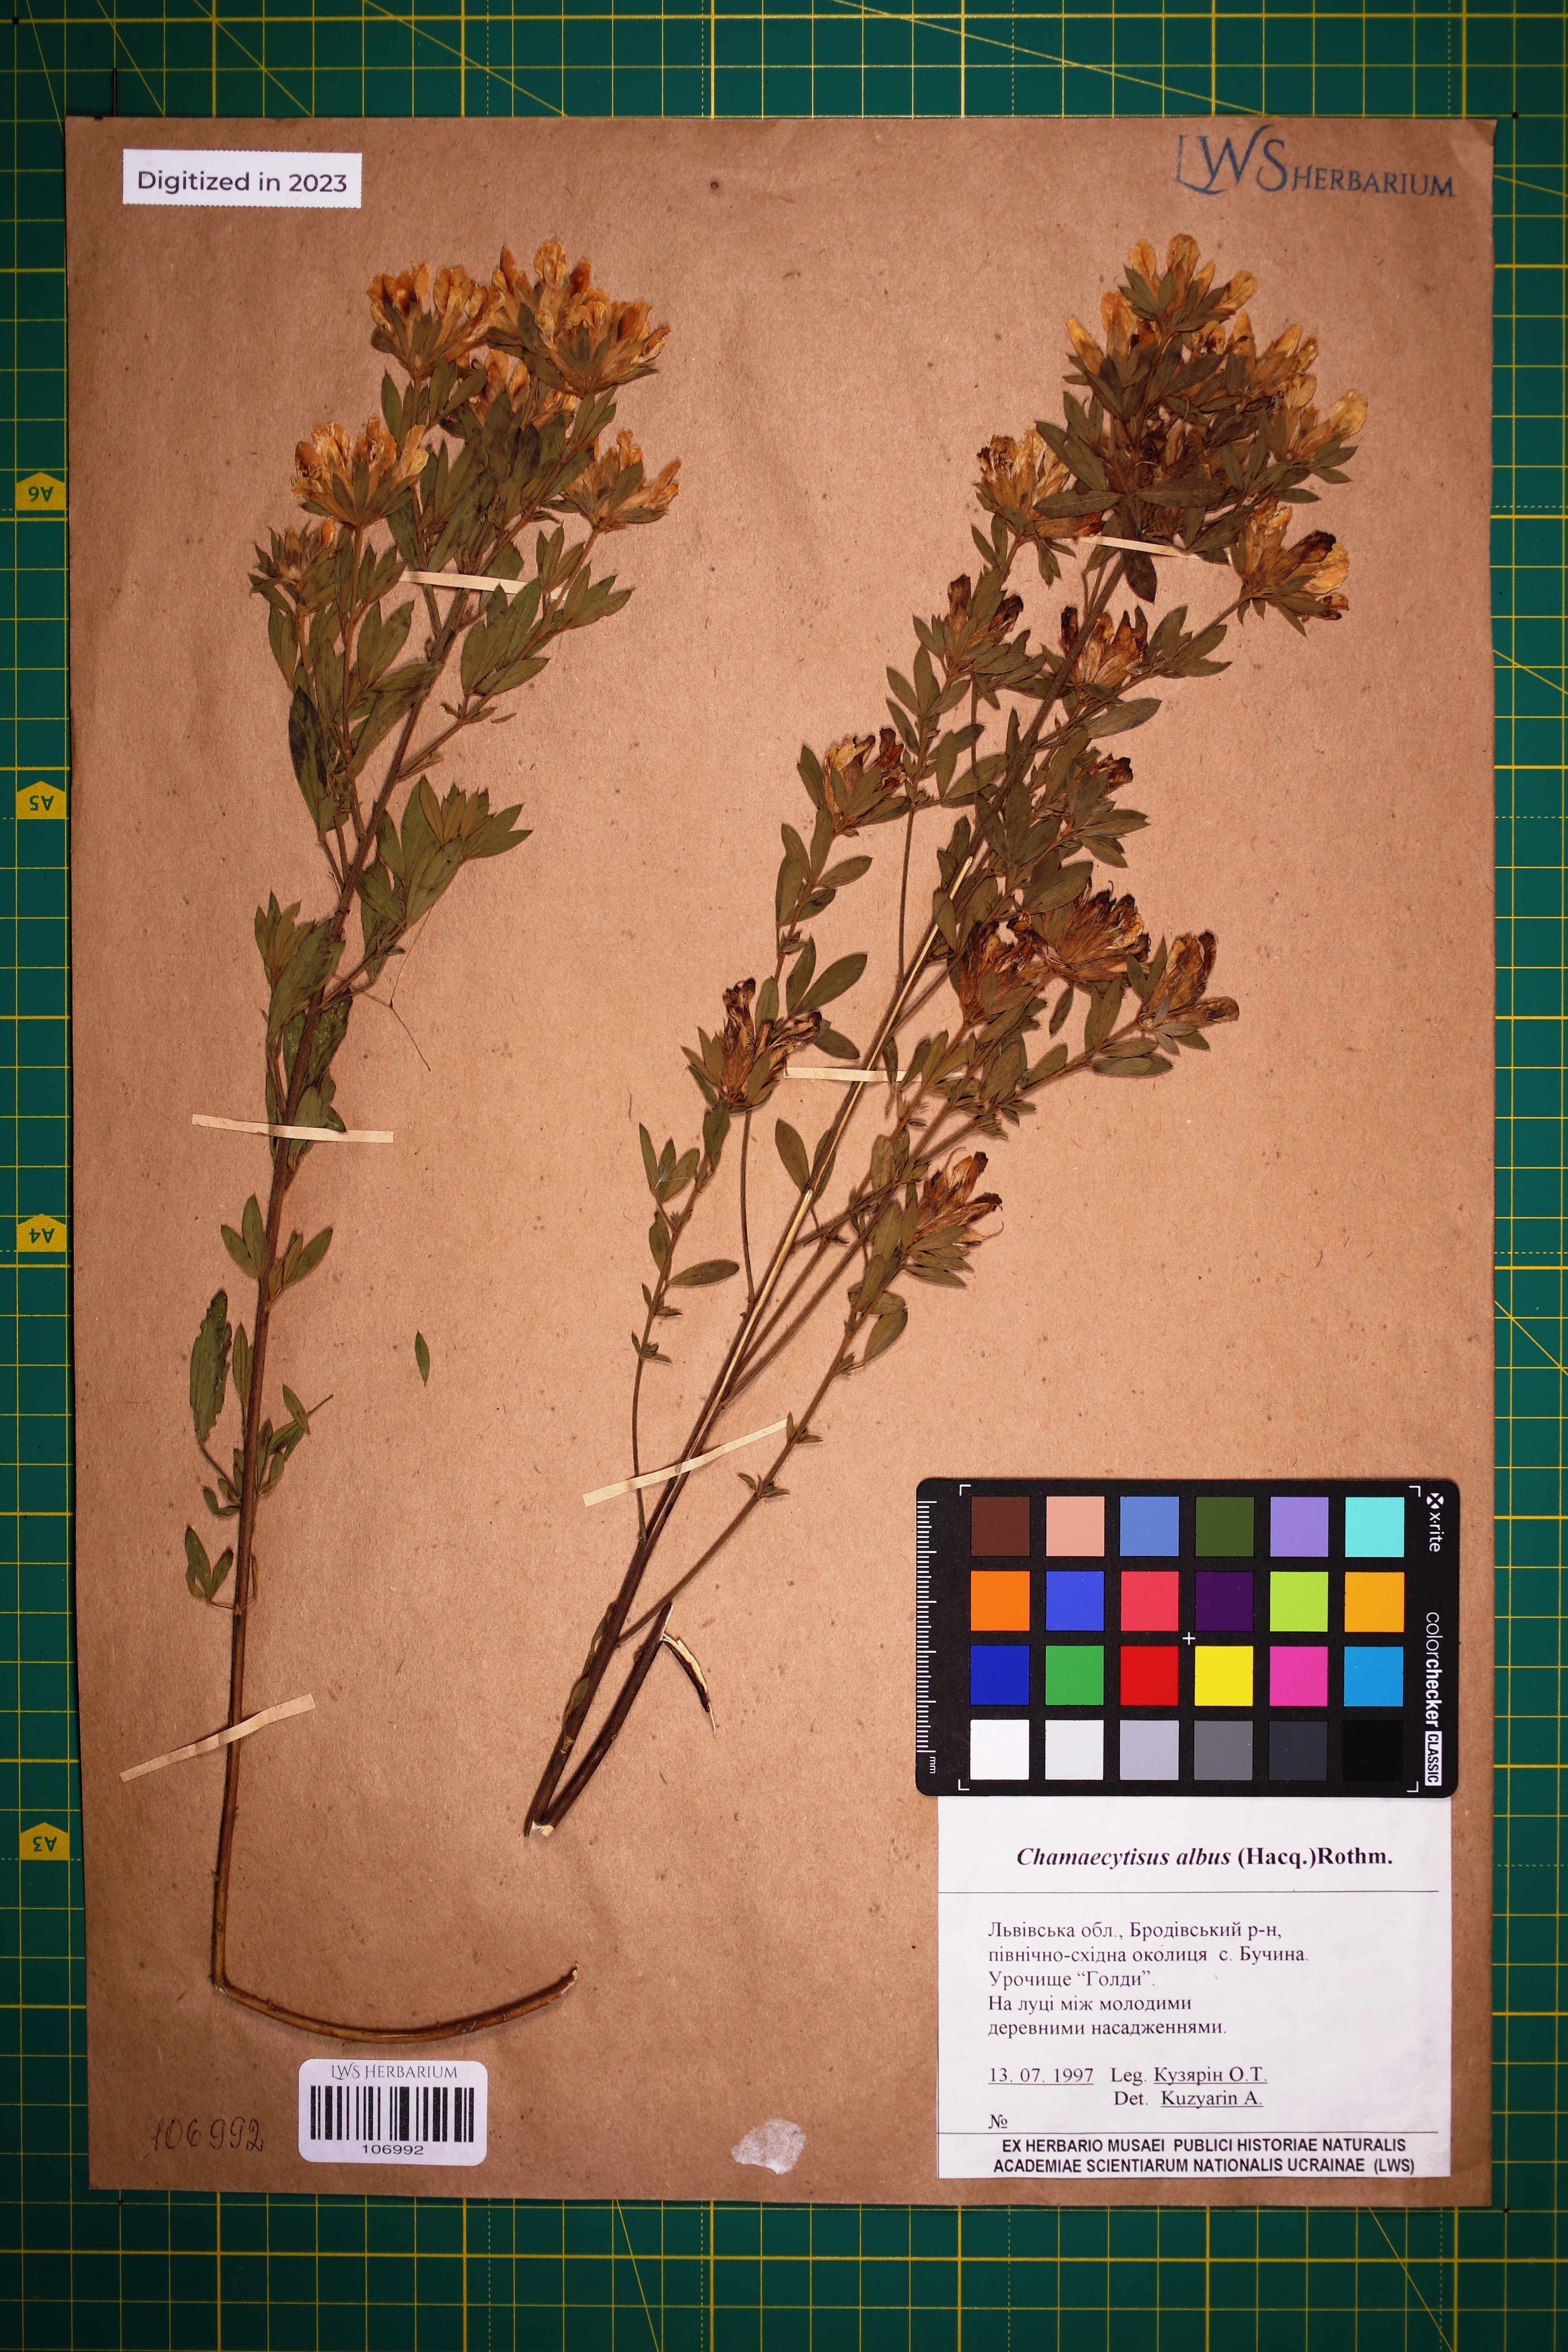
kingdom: Plantae
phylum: Tracheophyta
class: Magnoliopsida
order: Fabales
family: Fabaceae
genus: Chamaecytisus
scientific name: Chamaecytisus albus
